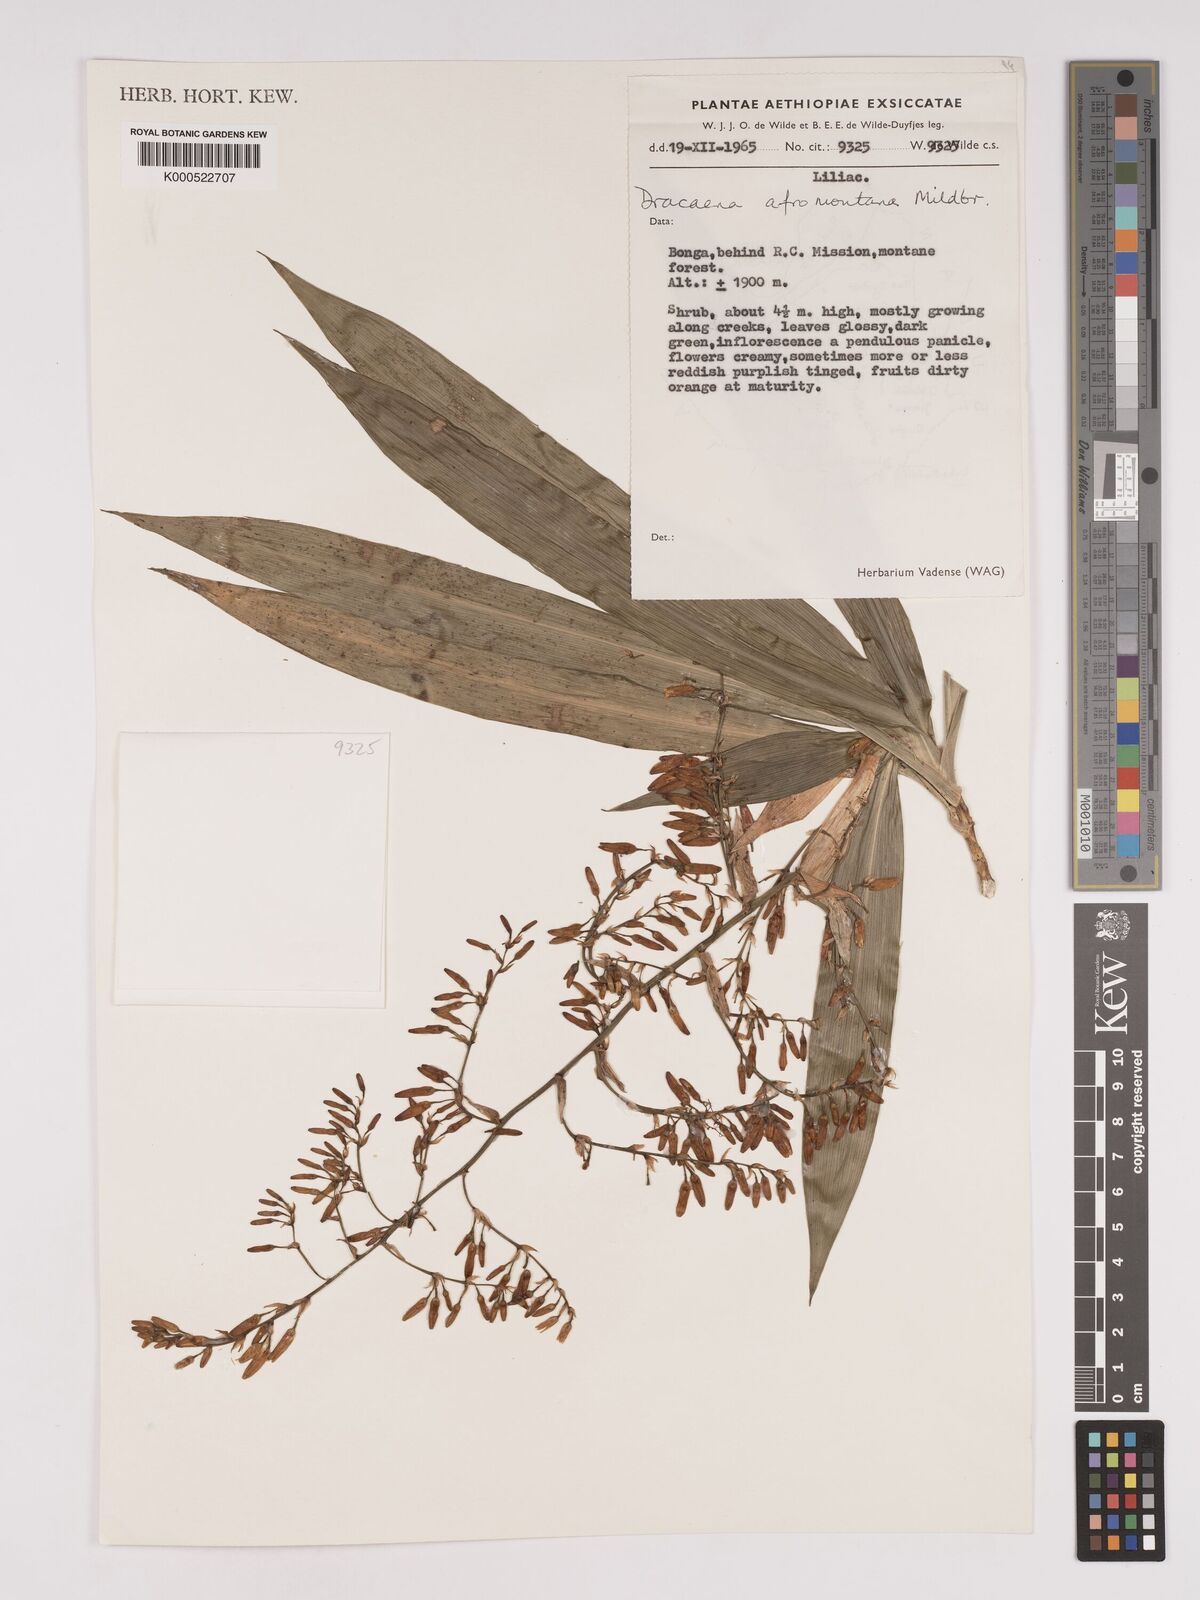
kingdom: Plantae
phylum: Tracheophyta
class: Liliopsida
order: Asparagales
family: Asparagaceae
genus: Dracaena
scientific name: Dracaena
